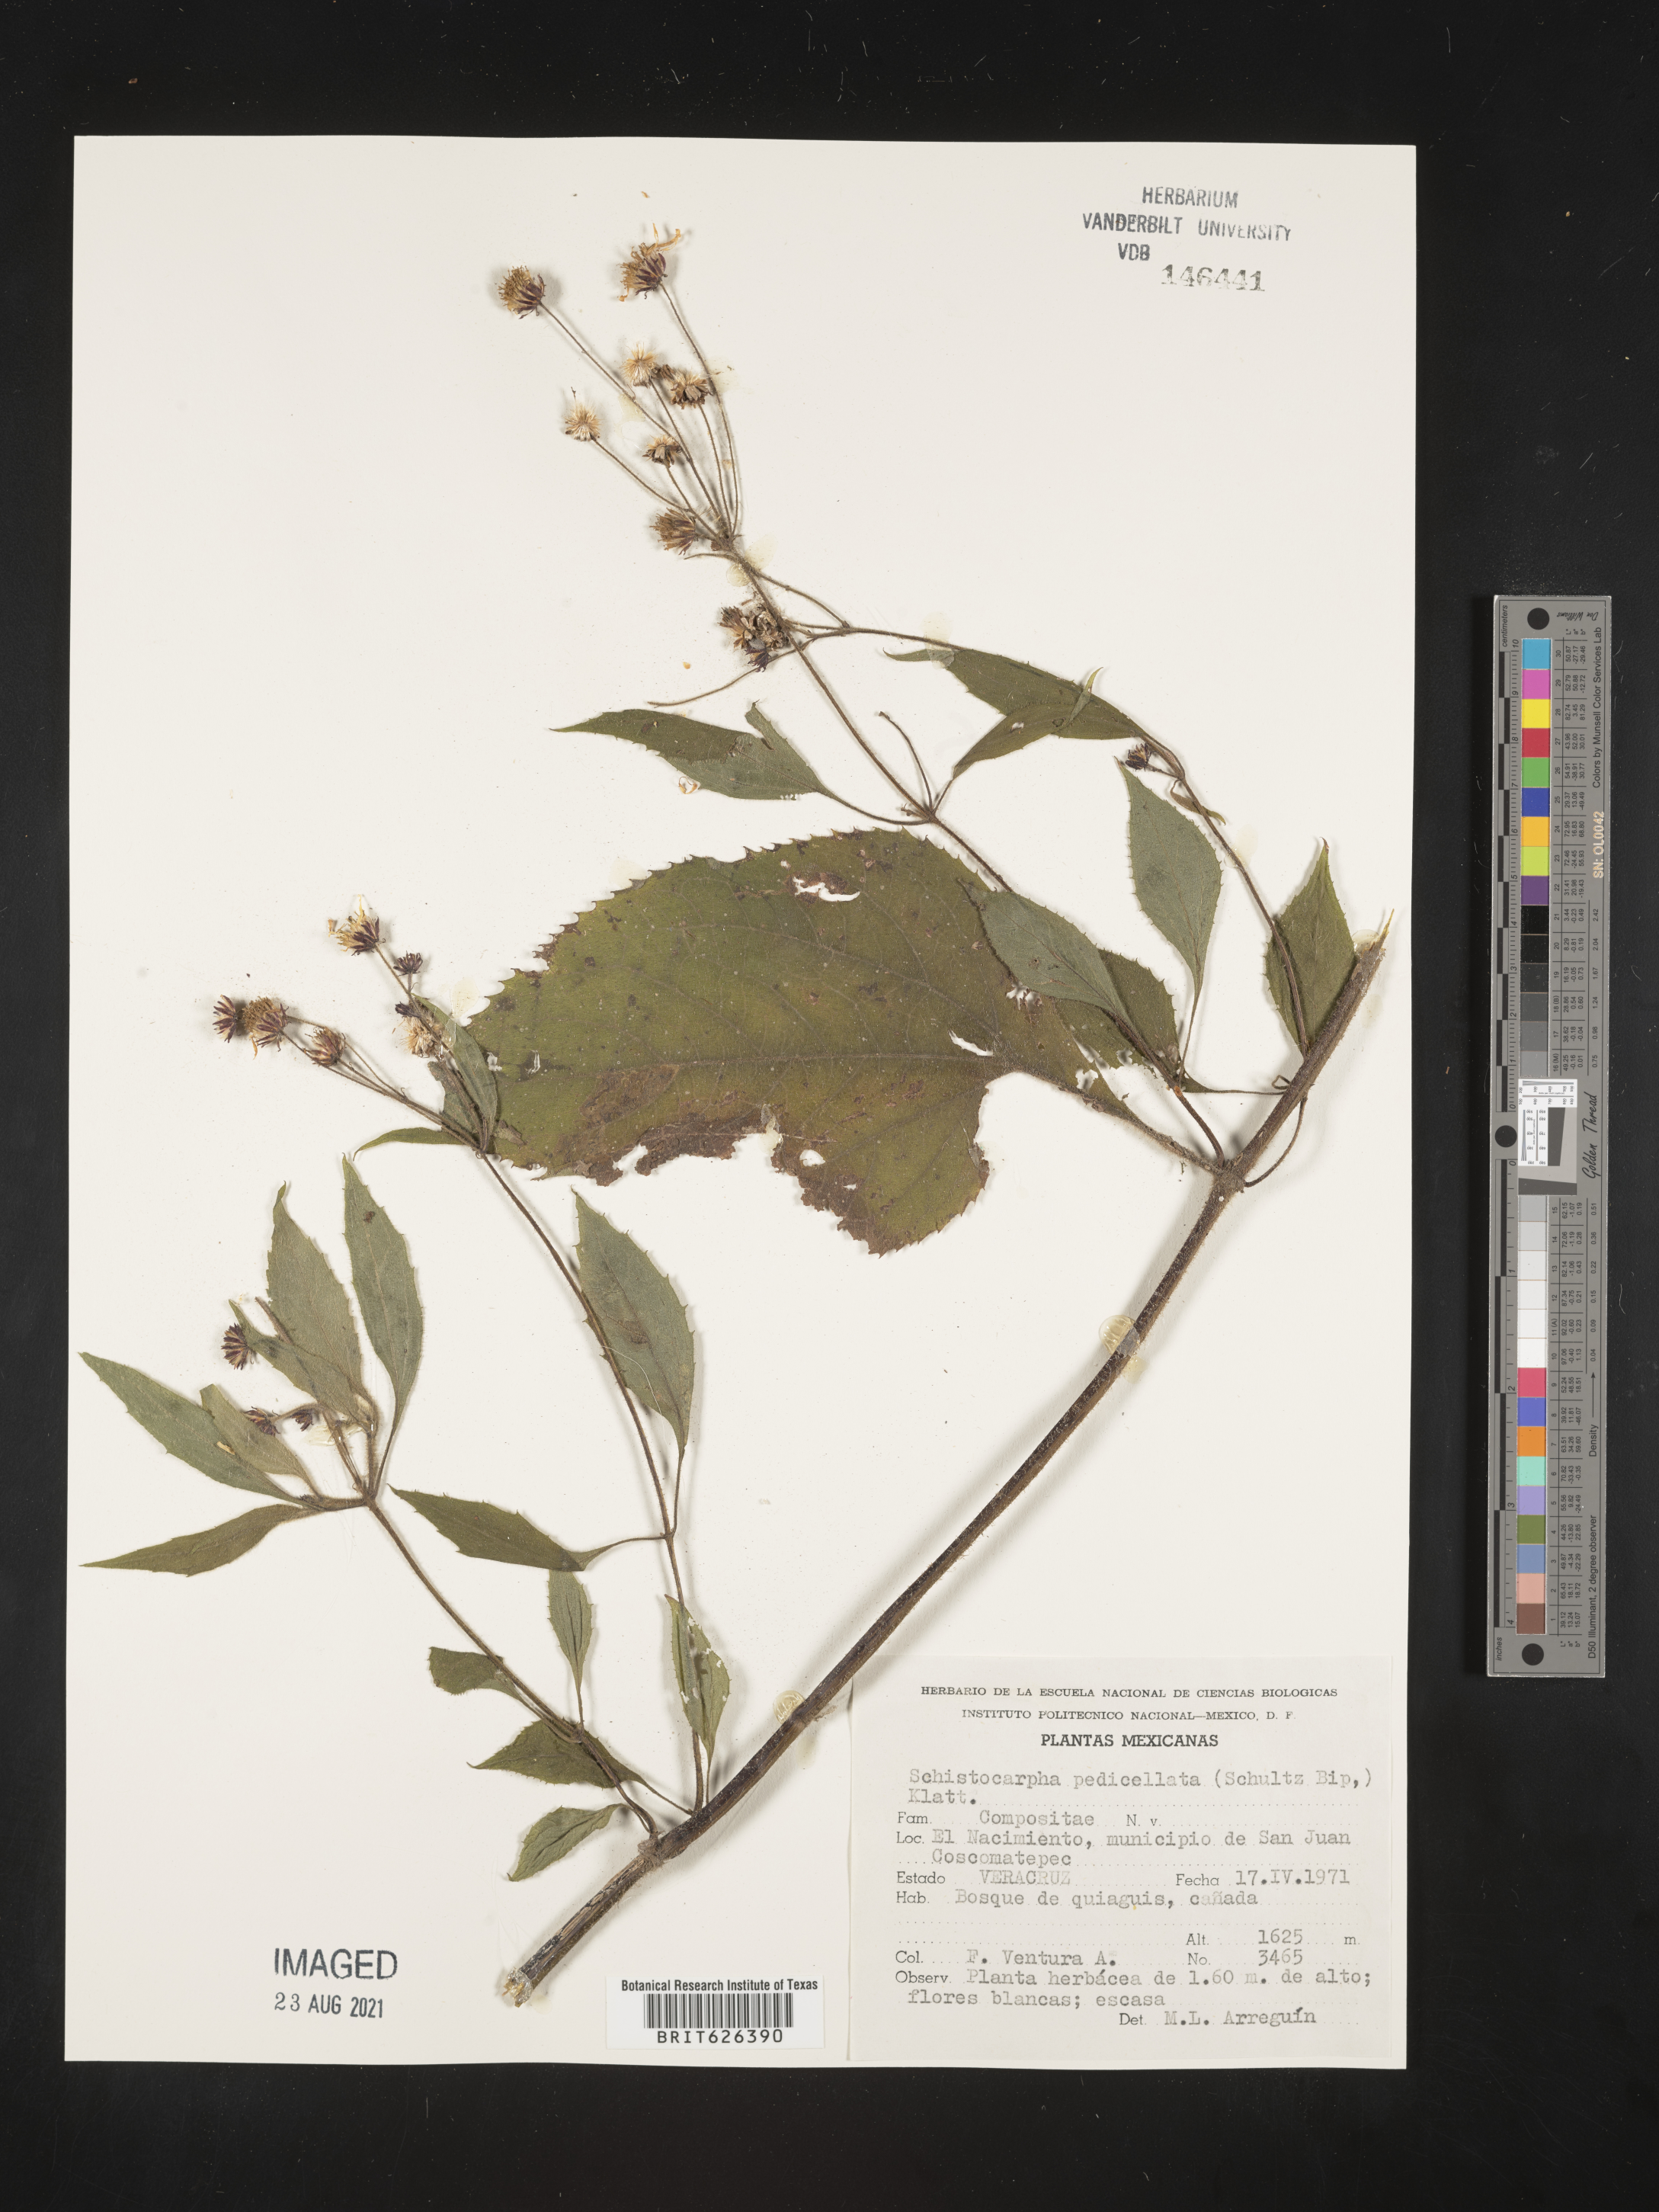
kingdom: Plantae
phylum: Tracheophyta
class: Magnoliopsida
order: Asterales
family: Asteraceae
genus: Schistocarpha
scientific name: Schistocarpha
